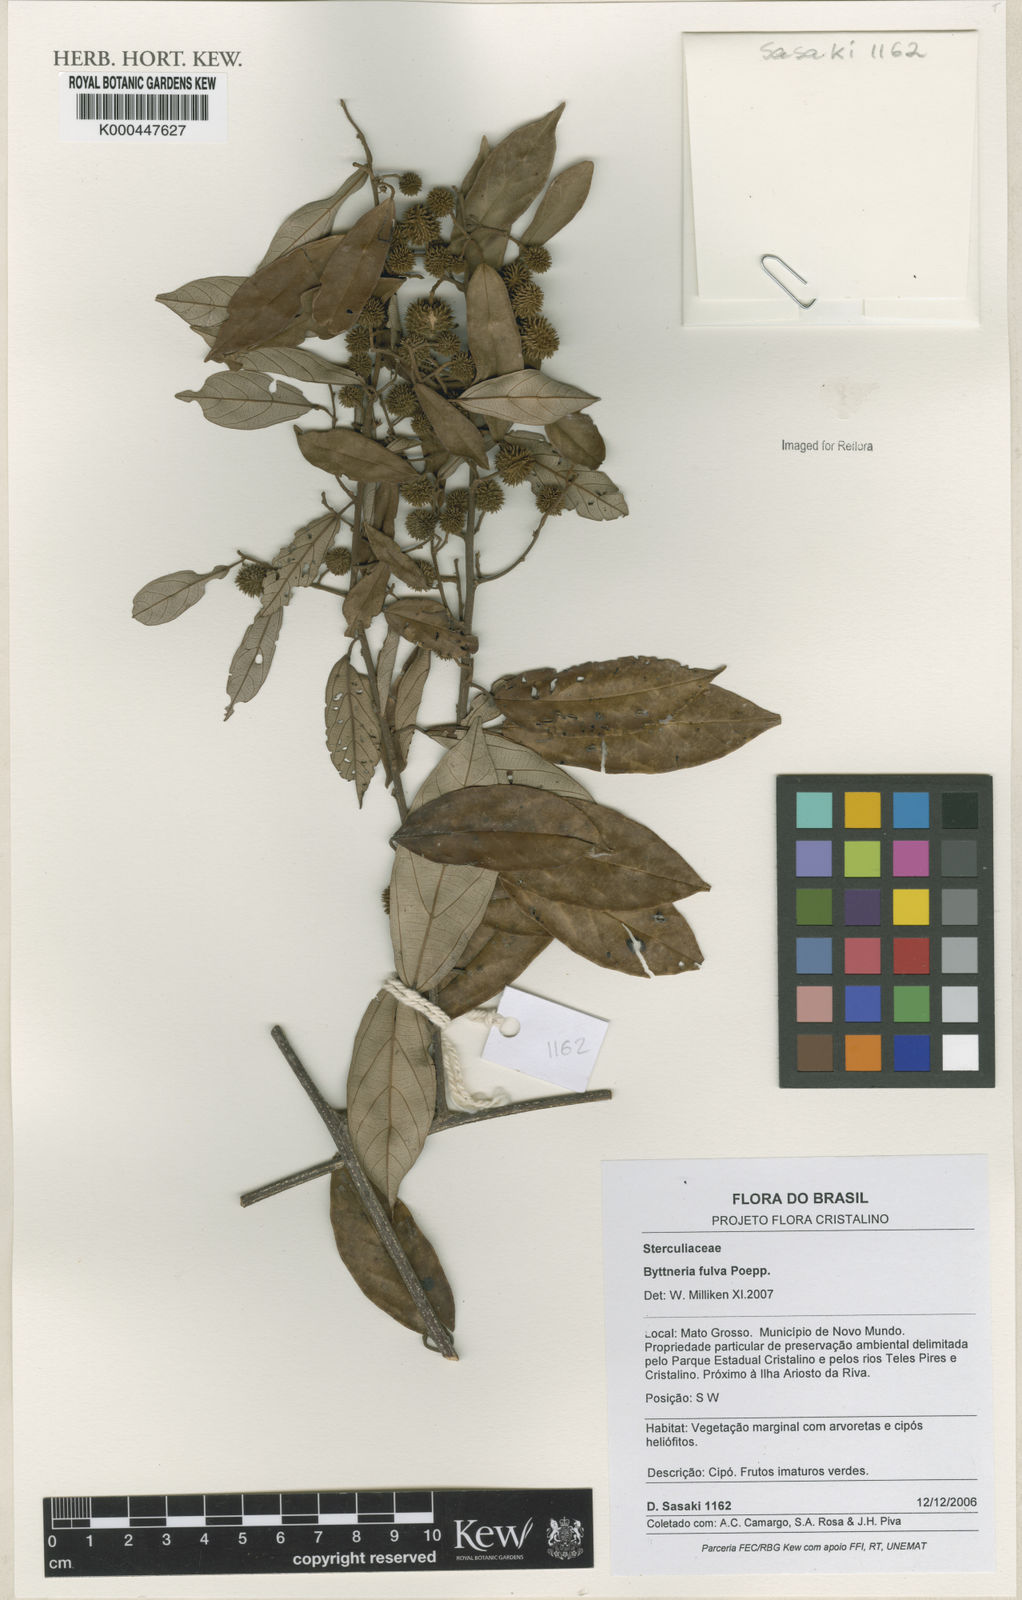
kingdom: Plantae
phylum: Tracheophyta
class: Magnoliopsida
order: Malvales
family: Malvaceae
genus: Byttneria
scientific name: Byttneria fulva
